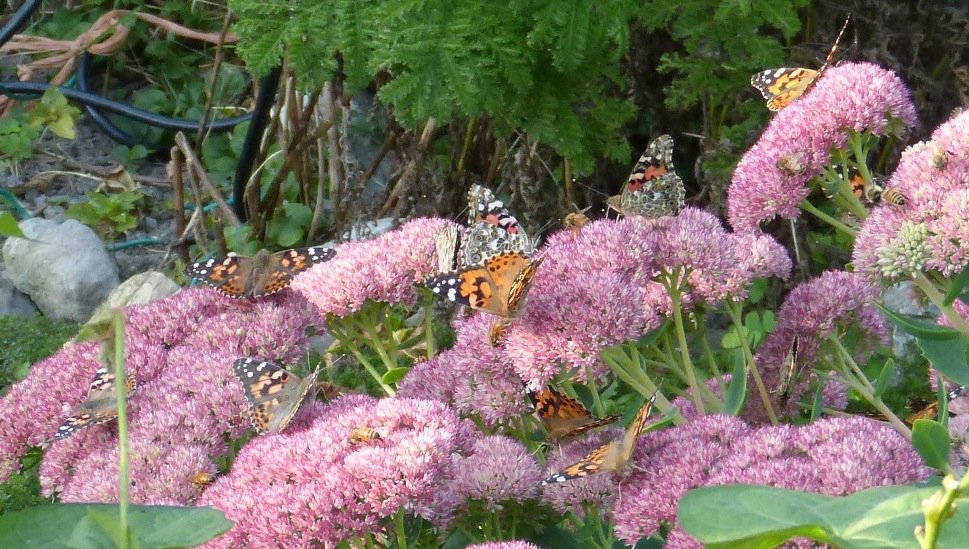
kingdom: Animalia
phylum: Arthropoda
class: Insecta
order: Lepidoptera
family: Nymphalidae
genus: Vanessa
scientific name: Vanessa cardui
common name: Painted Lady
